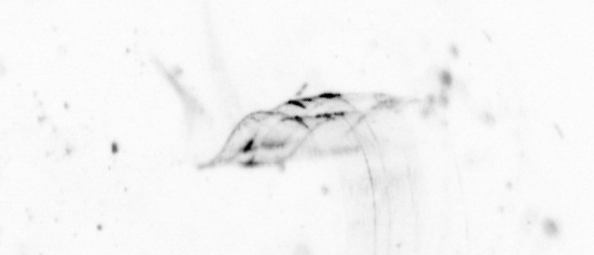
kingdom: Animalia
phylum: Chaetognatha
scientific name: Chaetognatha
